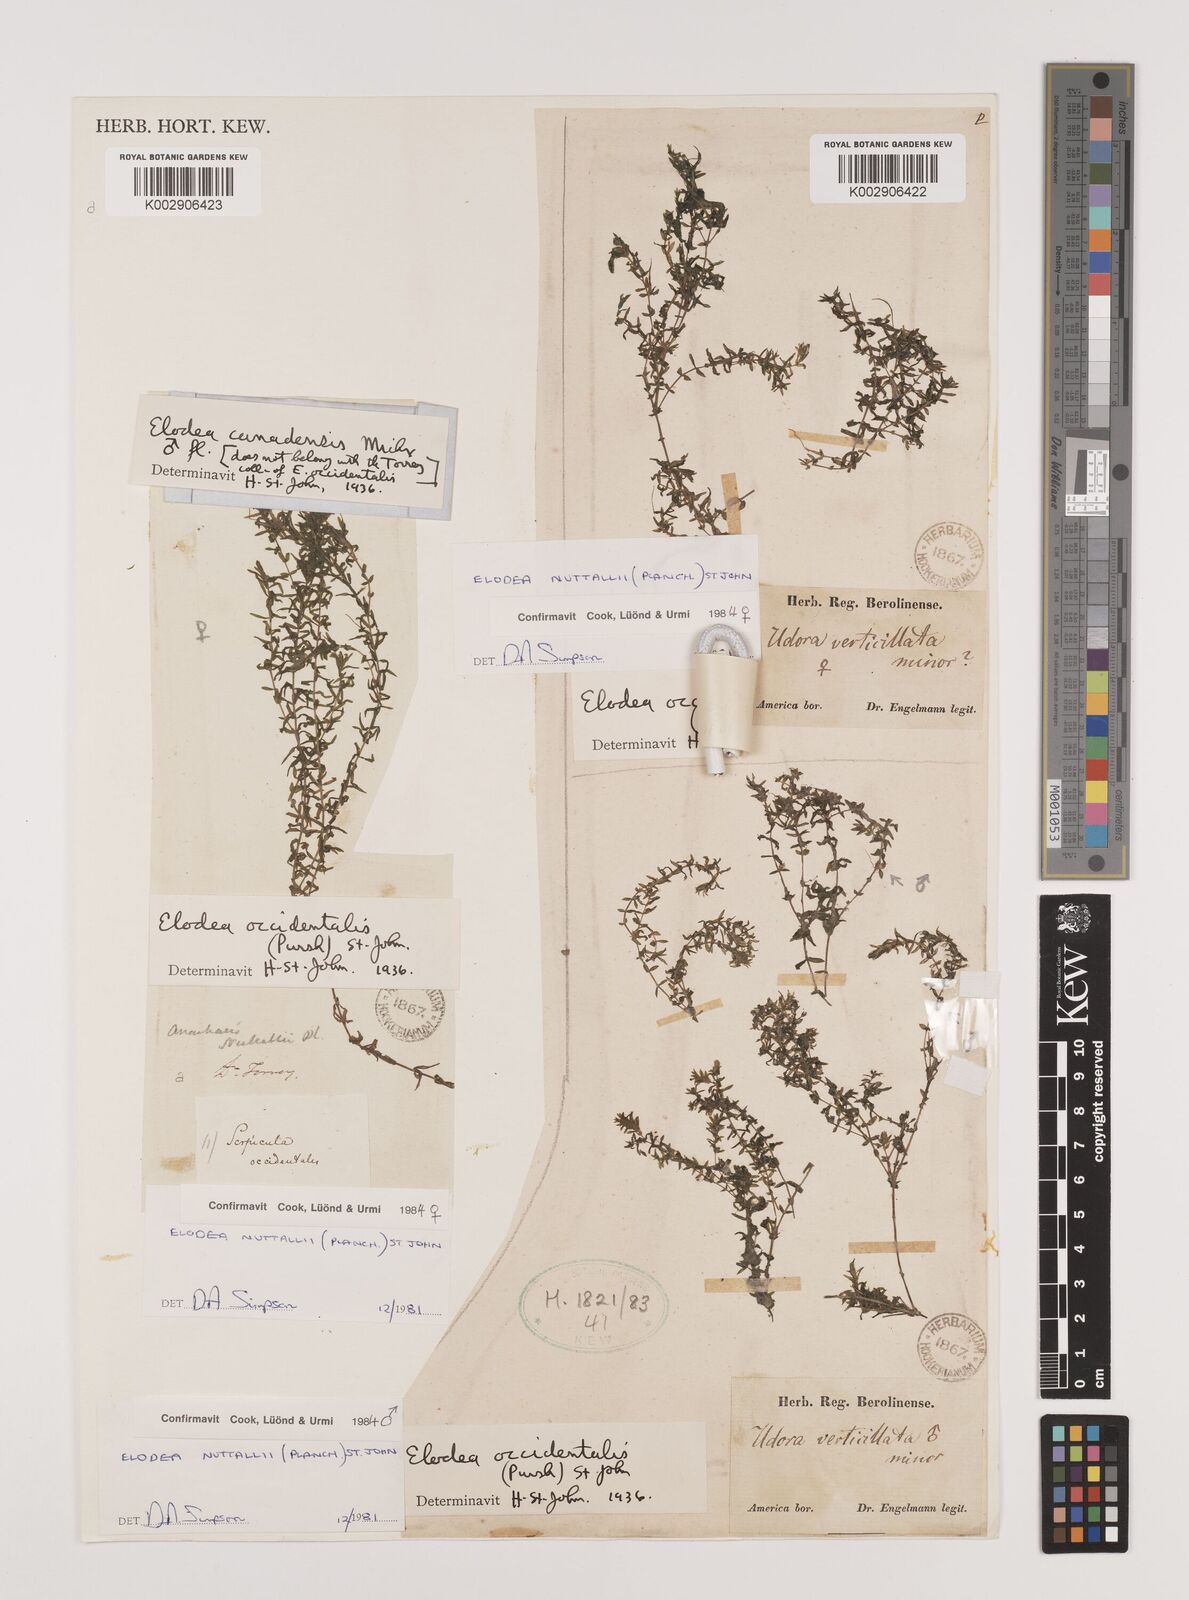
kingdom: Plantae
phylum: Tracheophyta
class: Liliopsida
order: Alismatales
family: Hydrocharitaceae
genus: Elodea
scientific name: Elodea nuttallii
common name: Nuttall's waterweed
